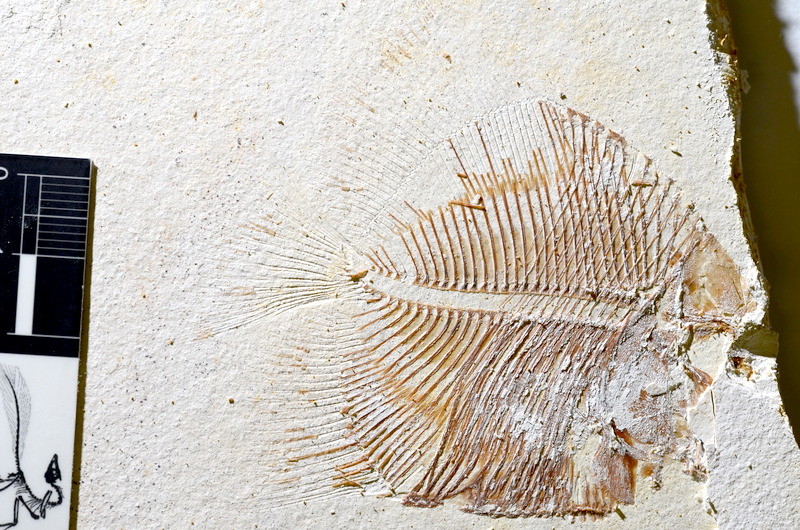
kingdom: Animalia
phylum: Chordata
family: Pycnodontidae
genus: Turbomesodon
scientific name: Turbomesodon relegans
